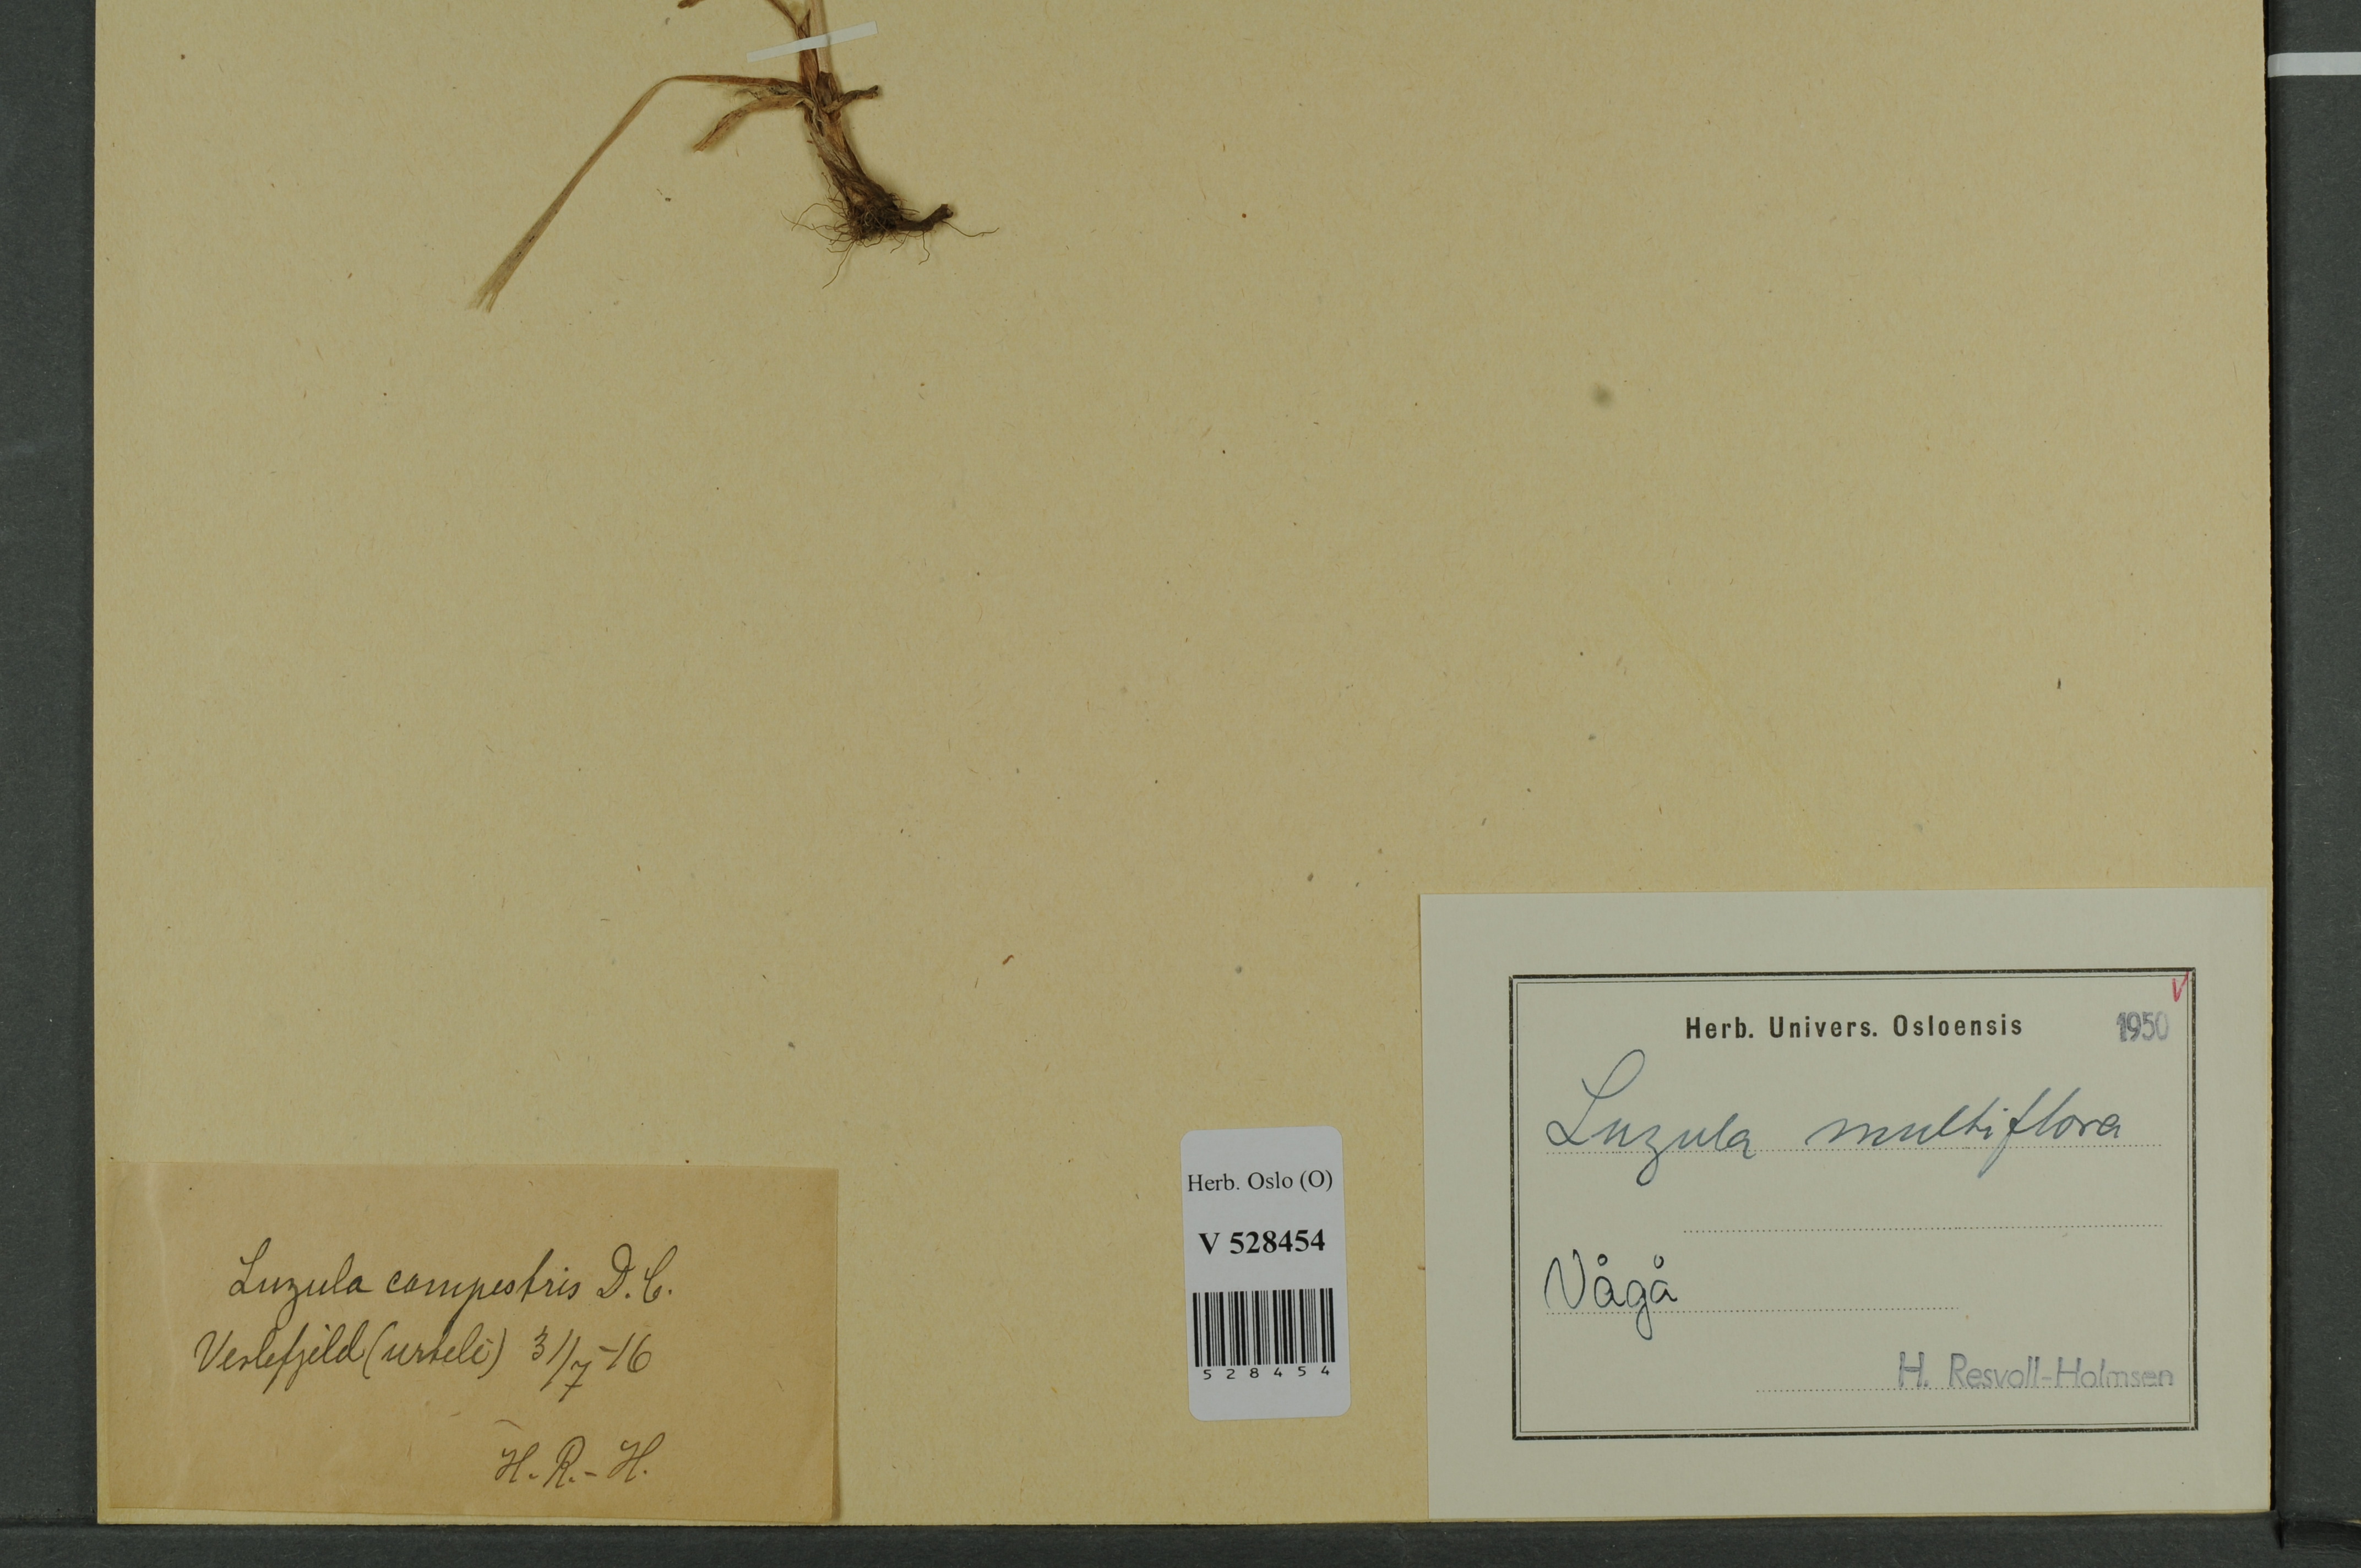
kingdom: Plantae
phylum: Tracheophyta
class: Liliopsida
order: Poales
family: Juncaceae
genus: Luzula
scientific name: Luzula multiflora
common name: Heath wood-rush
